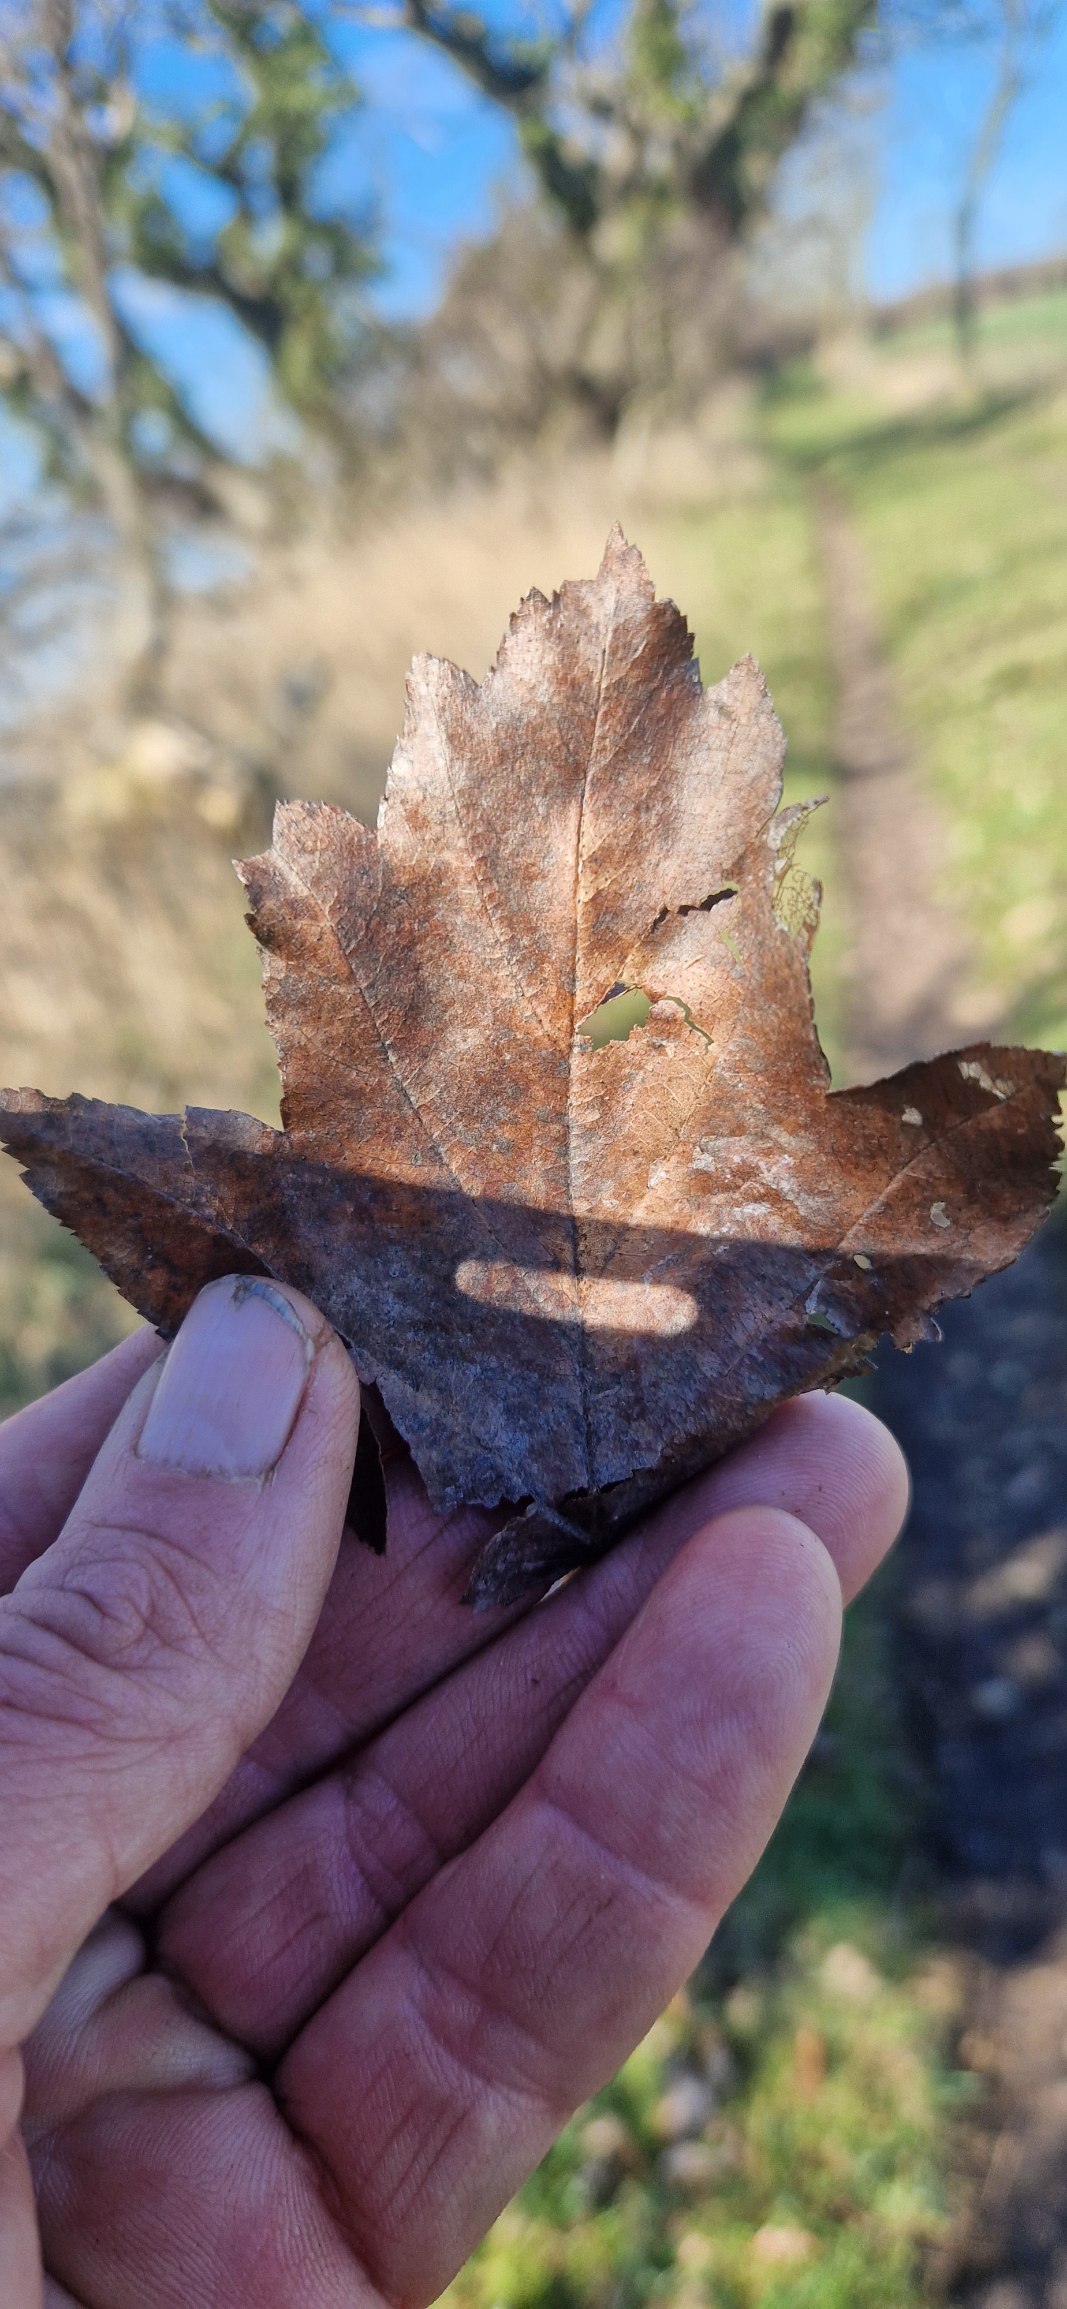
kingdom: Plantae
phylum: Tracheophyta
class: Magnoliopsida
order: Rosales
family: Rosaceae
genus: Torminalis
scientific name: Torminalis glaberrima
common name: Tarmvrid-røn
